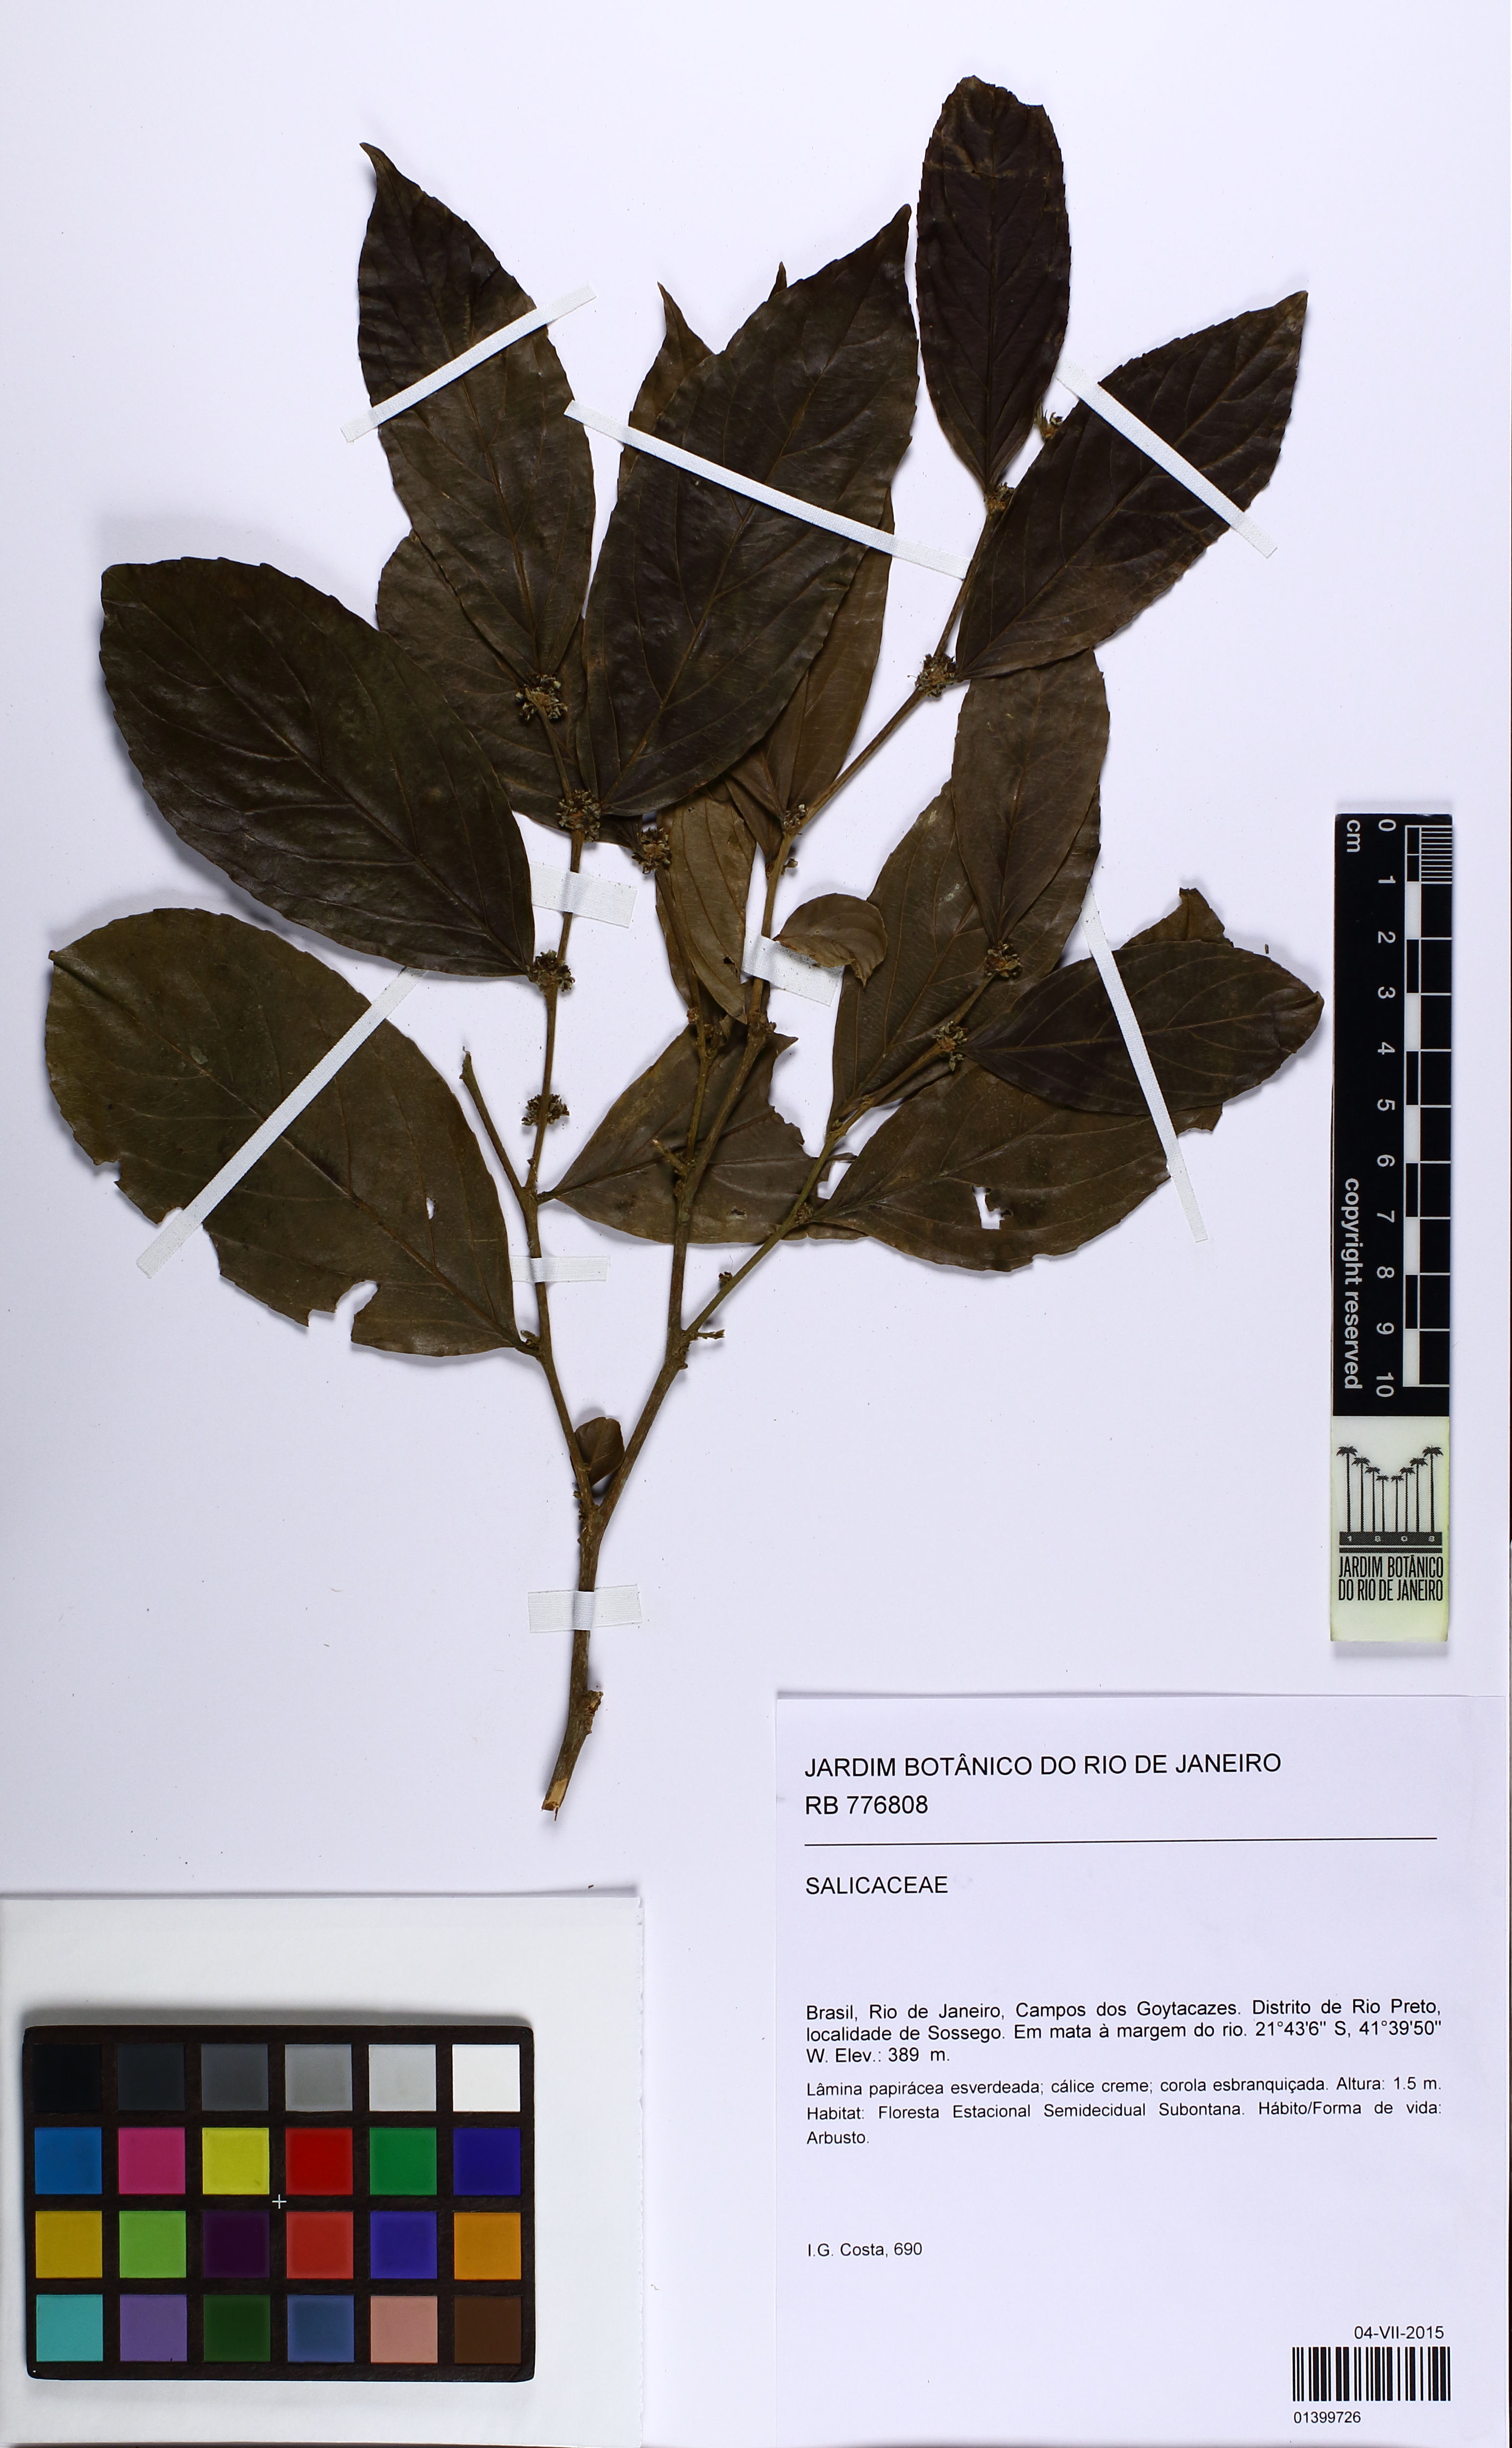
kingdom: Plantae
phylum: Tracheophyta
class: Magnoliopsida
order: Malpighiales
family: Salicaceae
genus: Piparea
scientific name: Piparea dentata
